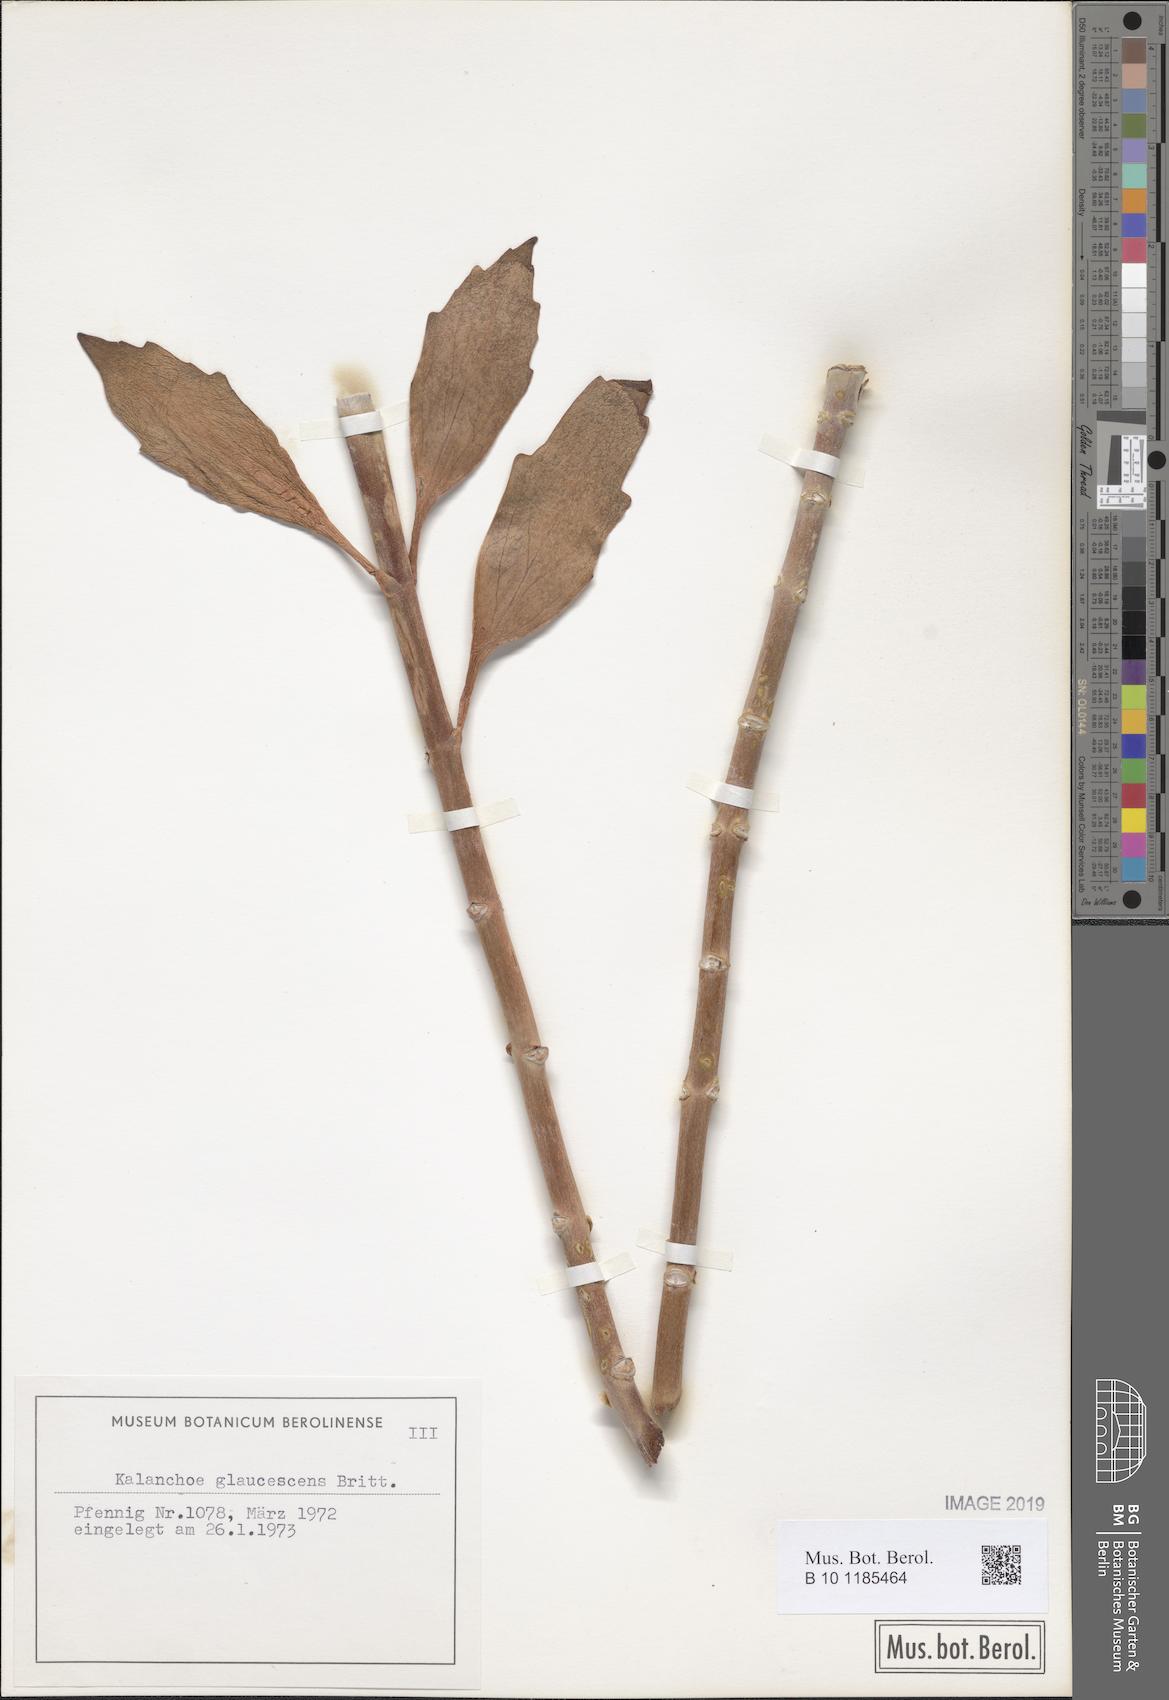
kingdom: Plantae
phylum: Tracheophyta
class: Magnoliopsida
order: Saxifragales
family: Crassulaceae
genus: Kalanchoe
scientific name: Kalanchoe glaucescens
